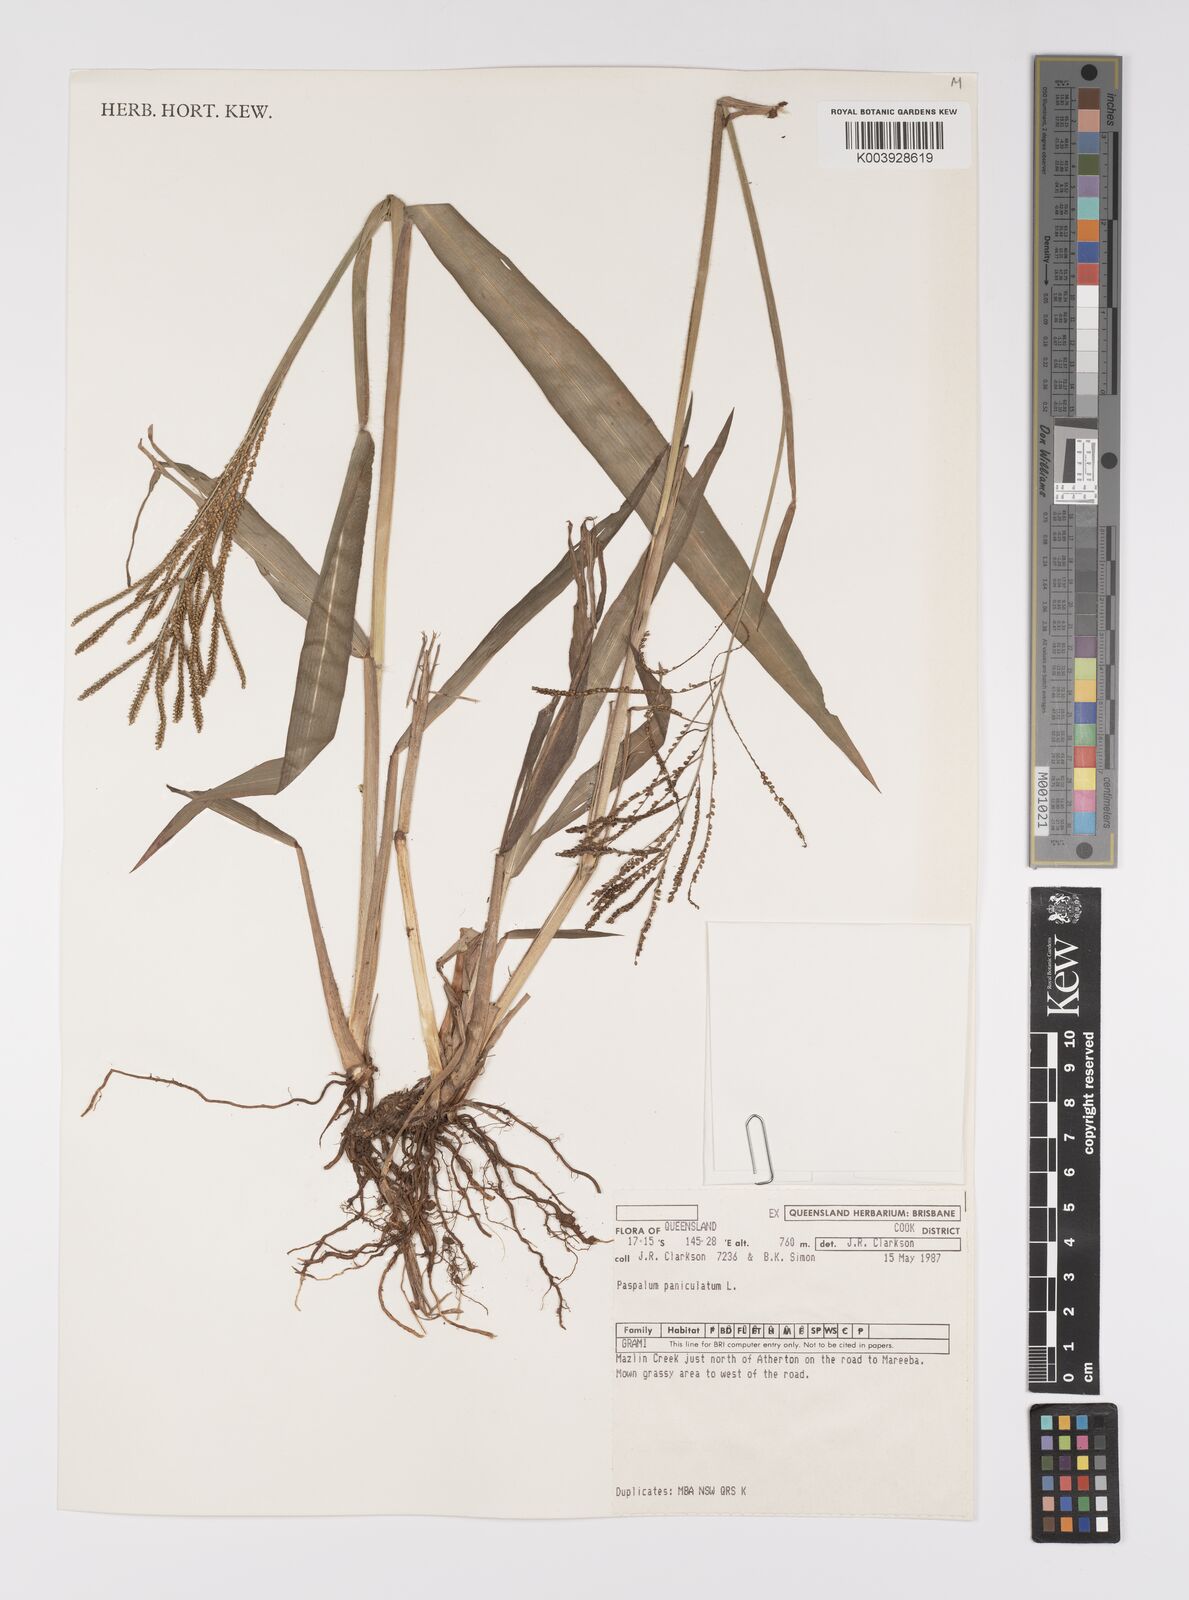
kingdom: Plantae
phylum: Tracheophyta
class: Liliopsida
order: Poales
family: Poaceae
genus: Paspalum
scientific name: Paspalum paniculatum
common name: Arrocillo
